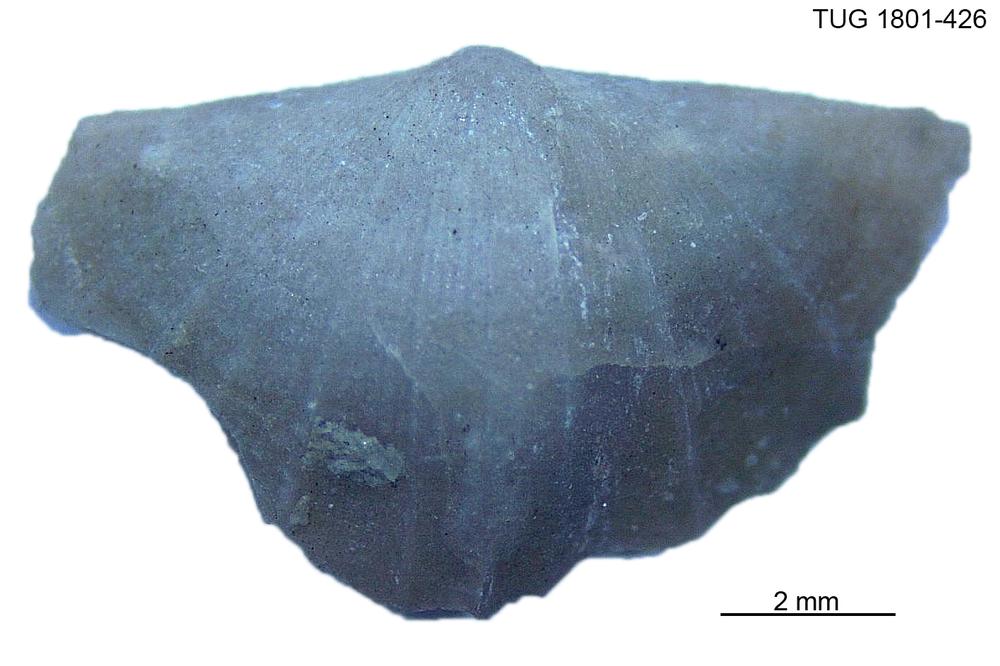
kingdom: Animalia
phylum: Brachiopoda
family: Oldhaminidae
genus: Eoplectodonta
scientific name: Eoplectodonta
